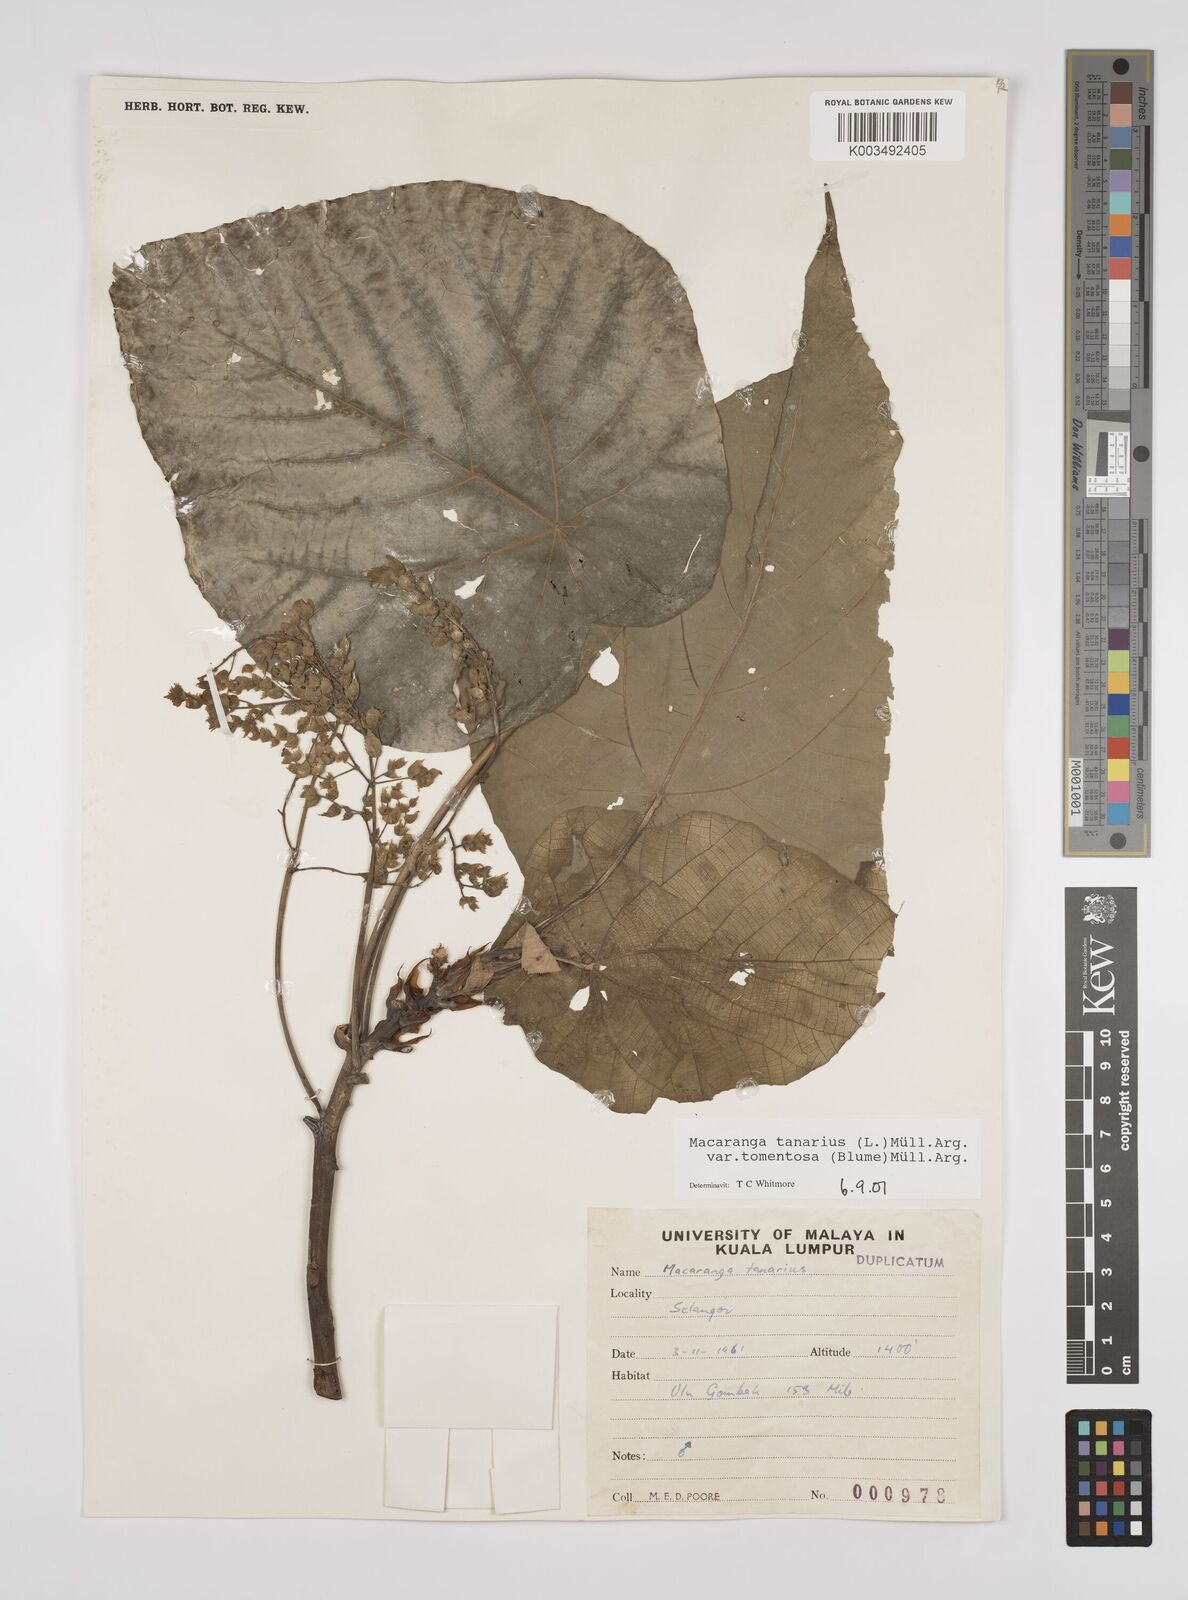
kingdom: Plantae
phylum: Tracheophyta
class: Magnoliopsida
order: Malpighiales
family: Euphorbiaceae
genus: Macaranga
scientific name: Macaranga tanarius
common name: Parasol leaf tree
